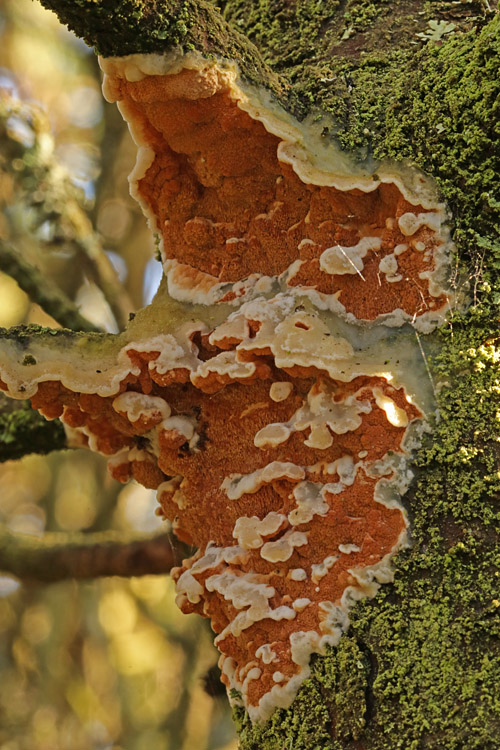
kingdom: Fungi
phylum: Basidiomycota
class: Agaricomycetes
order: Polyporales
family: Irpicaceae
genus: Meruliopsis
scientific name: Meruliopsis taxicola
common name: purpurbrun foldporesvamp
